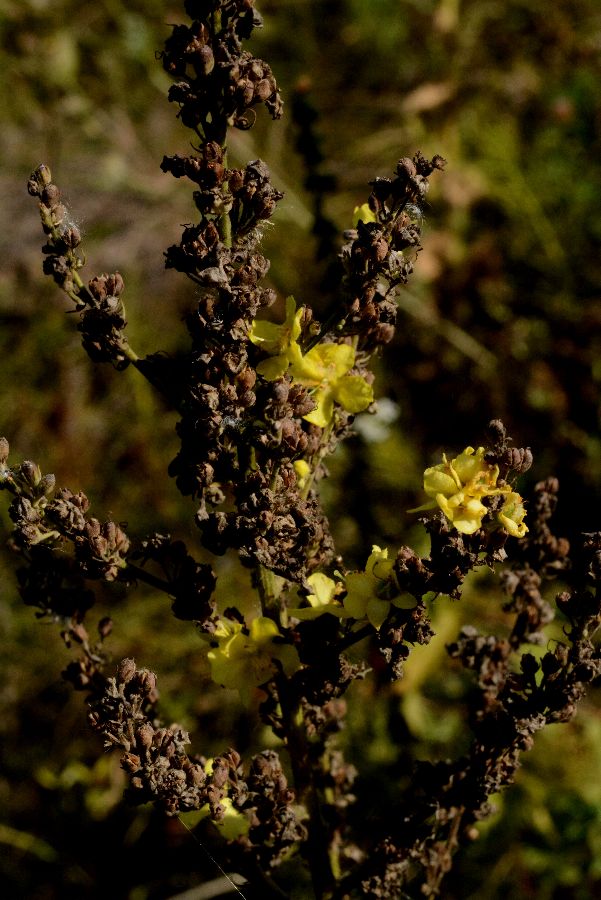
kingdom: Plantae
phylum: Tracheophyta
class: Magnoliopsida
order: Lamiales
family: Scrophulariaceae
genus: Verbascum
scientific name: Verbascum lychnitis
